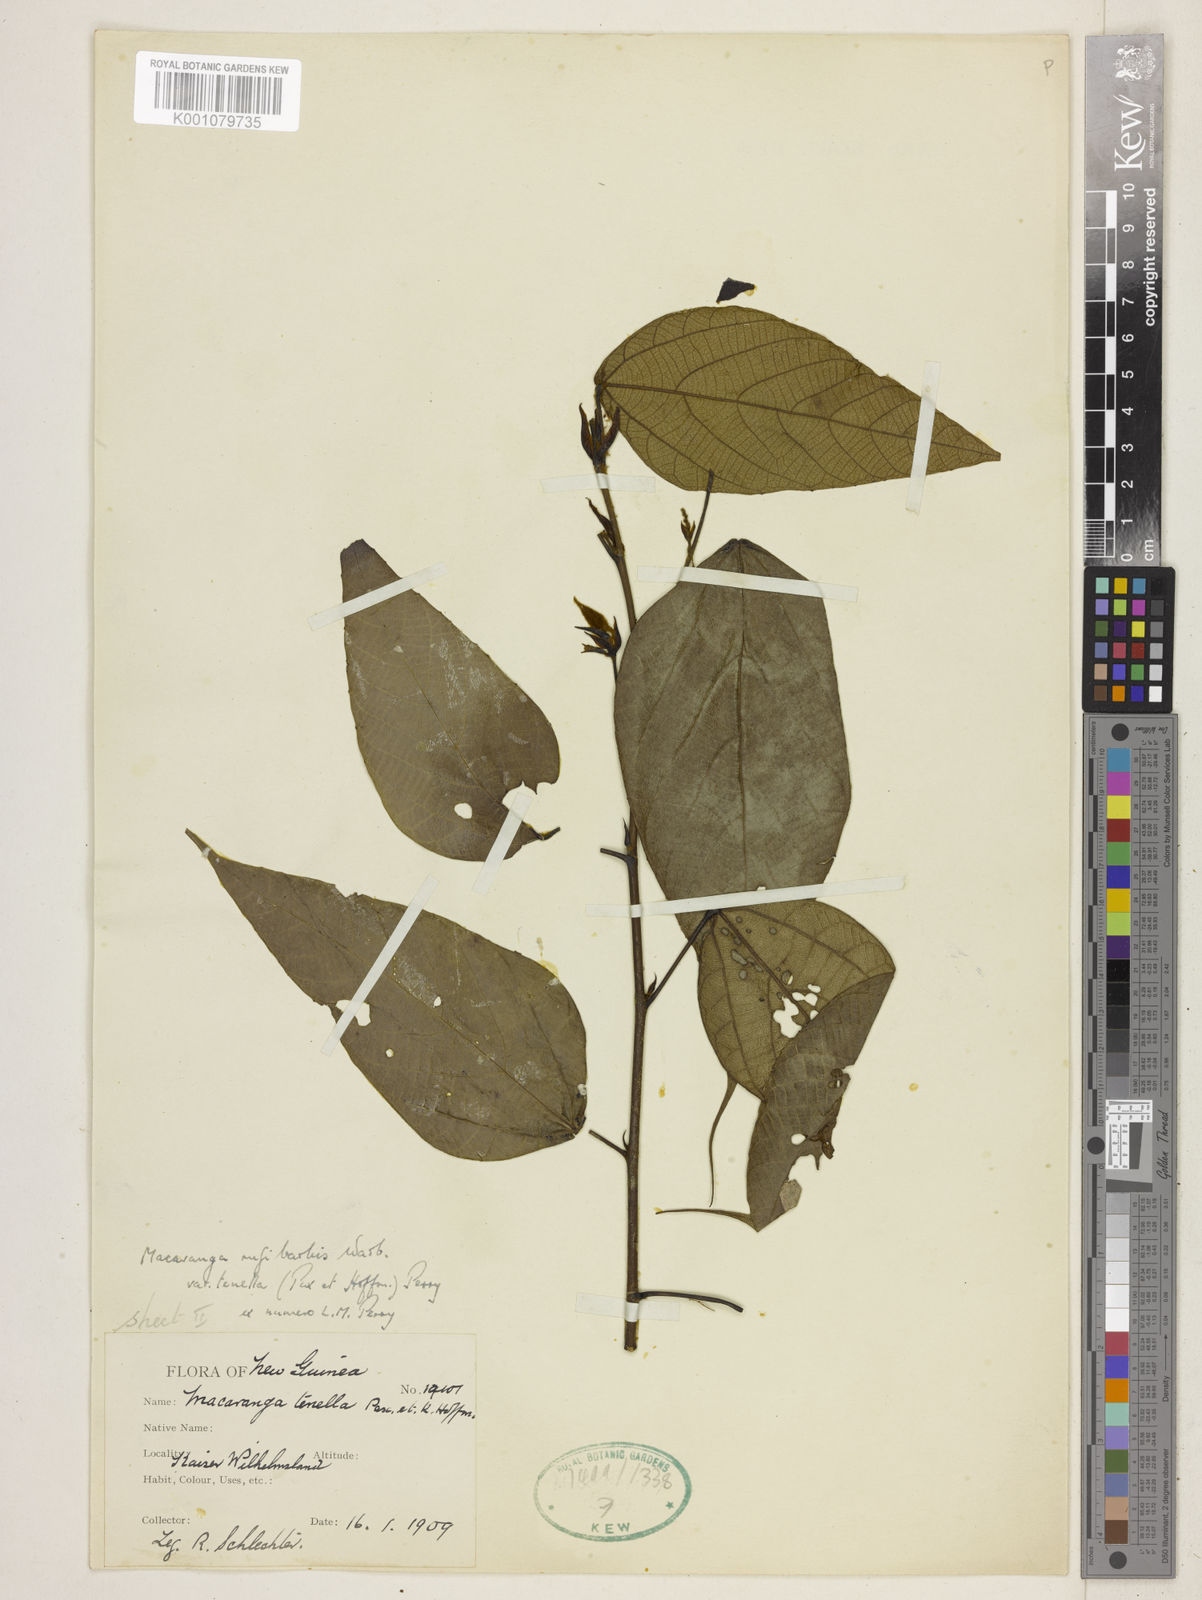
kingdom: Plantae
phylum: Tracheophyta
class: Magnoliopsida
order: Malpighiales
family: Euphorbiaceae
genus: Macaranga
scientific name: Macaranga rufibarbis
